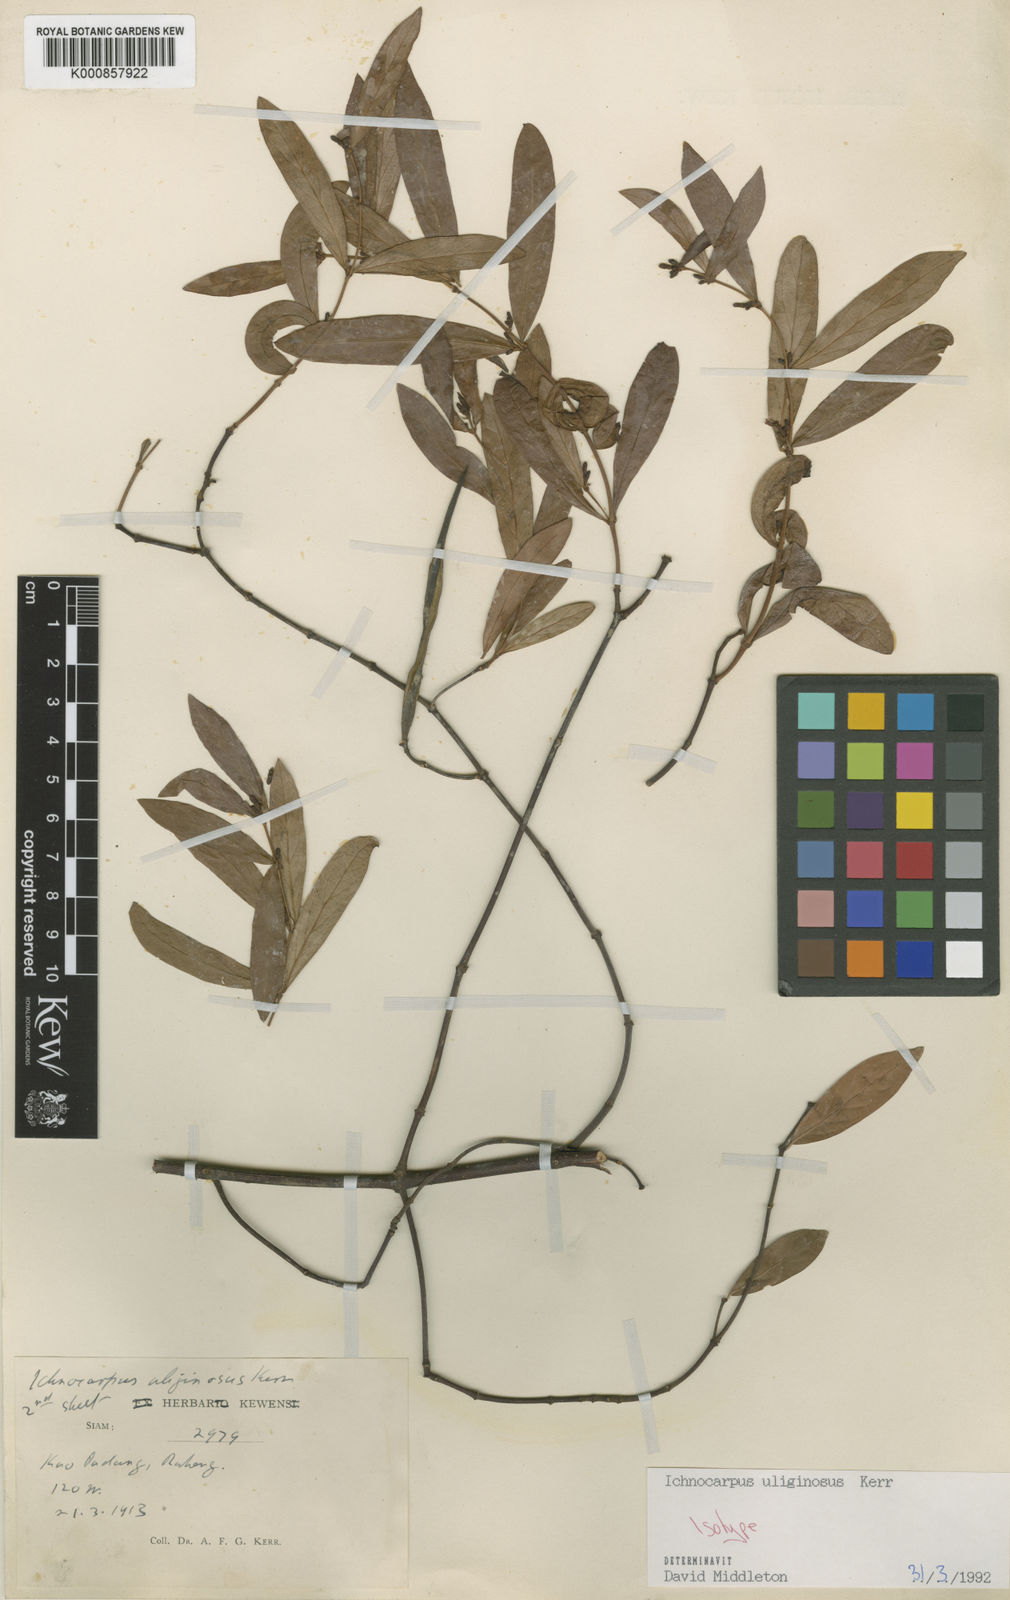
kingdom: Plantae
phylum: Tracheophyta
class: Magnoliopsida
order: Gentianales
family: Apocynaceae
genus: Ichnocarpus
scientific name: Ichnocarpus uliginosus
